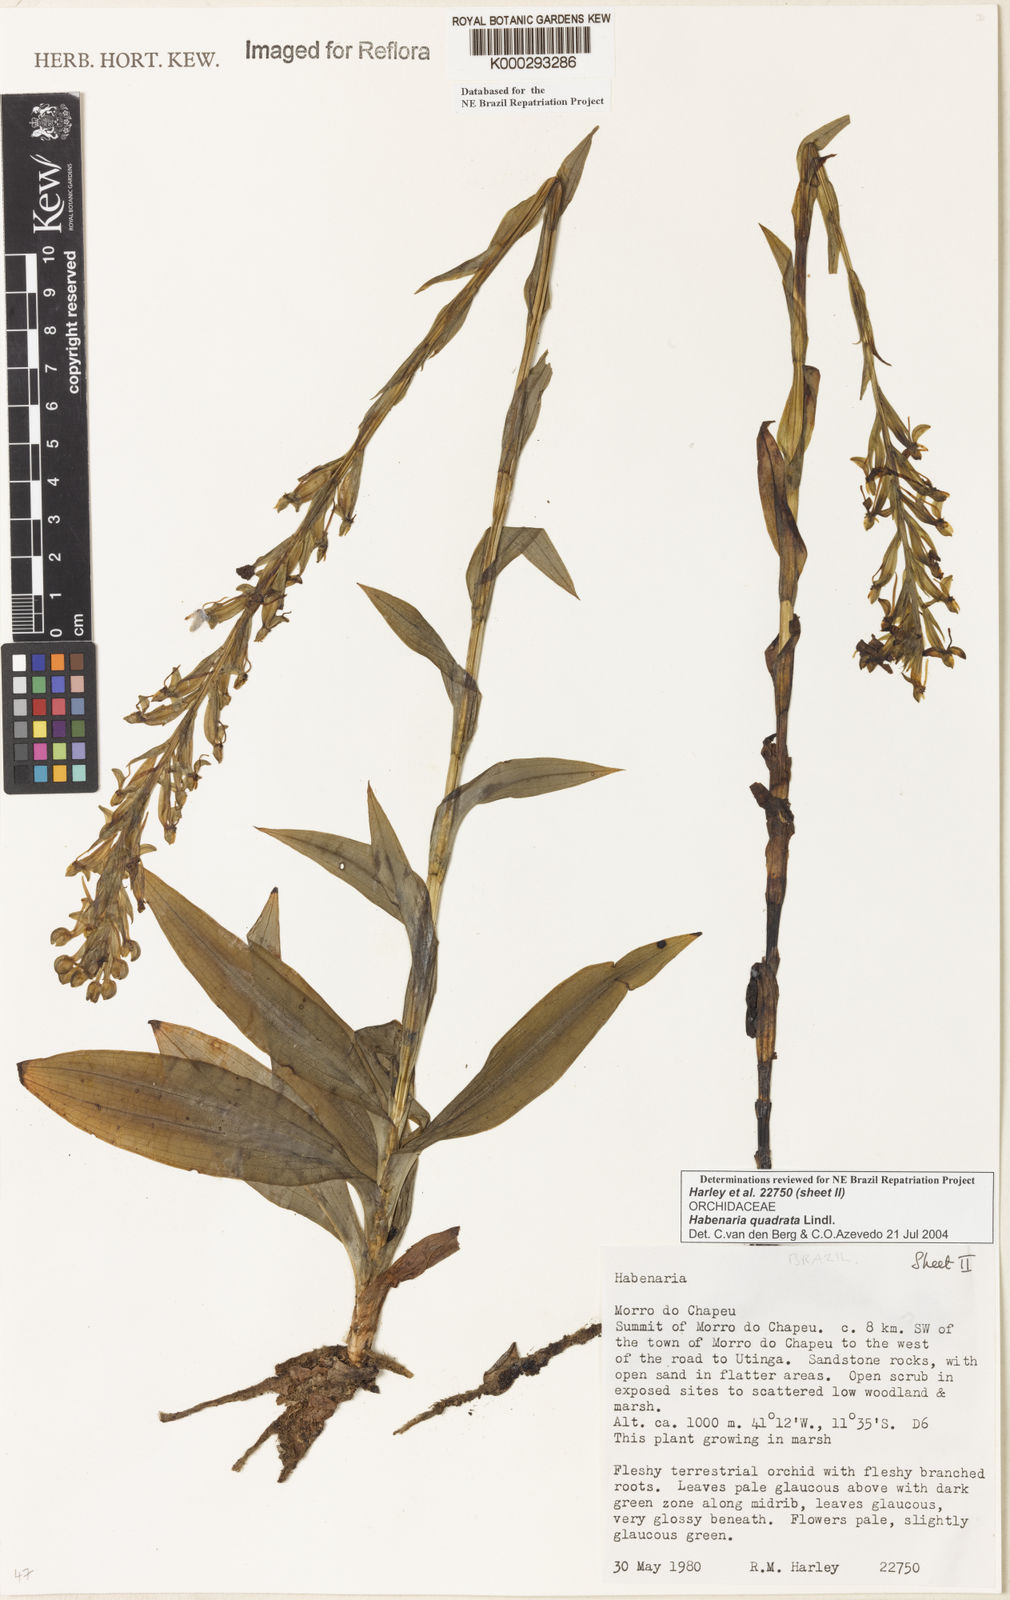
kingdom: Plantae
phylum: Tracheophyta
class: Liliopsida
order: Asparagales
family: Orchidaceae
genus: Habenaria
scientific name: Habenaria quadrata
